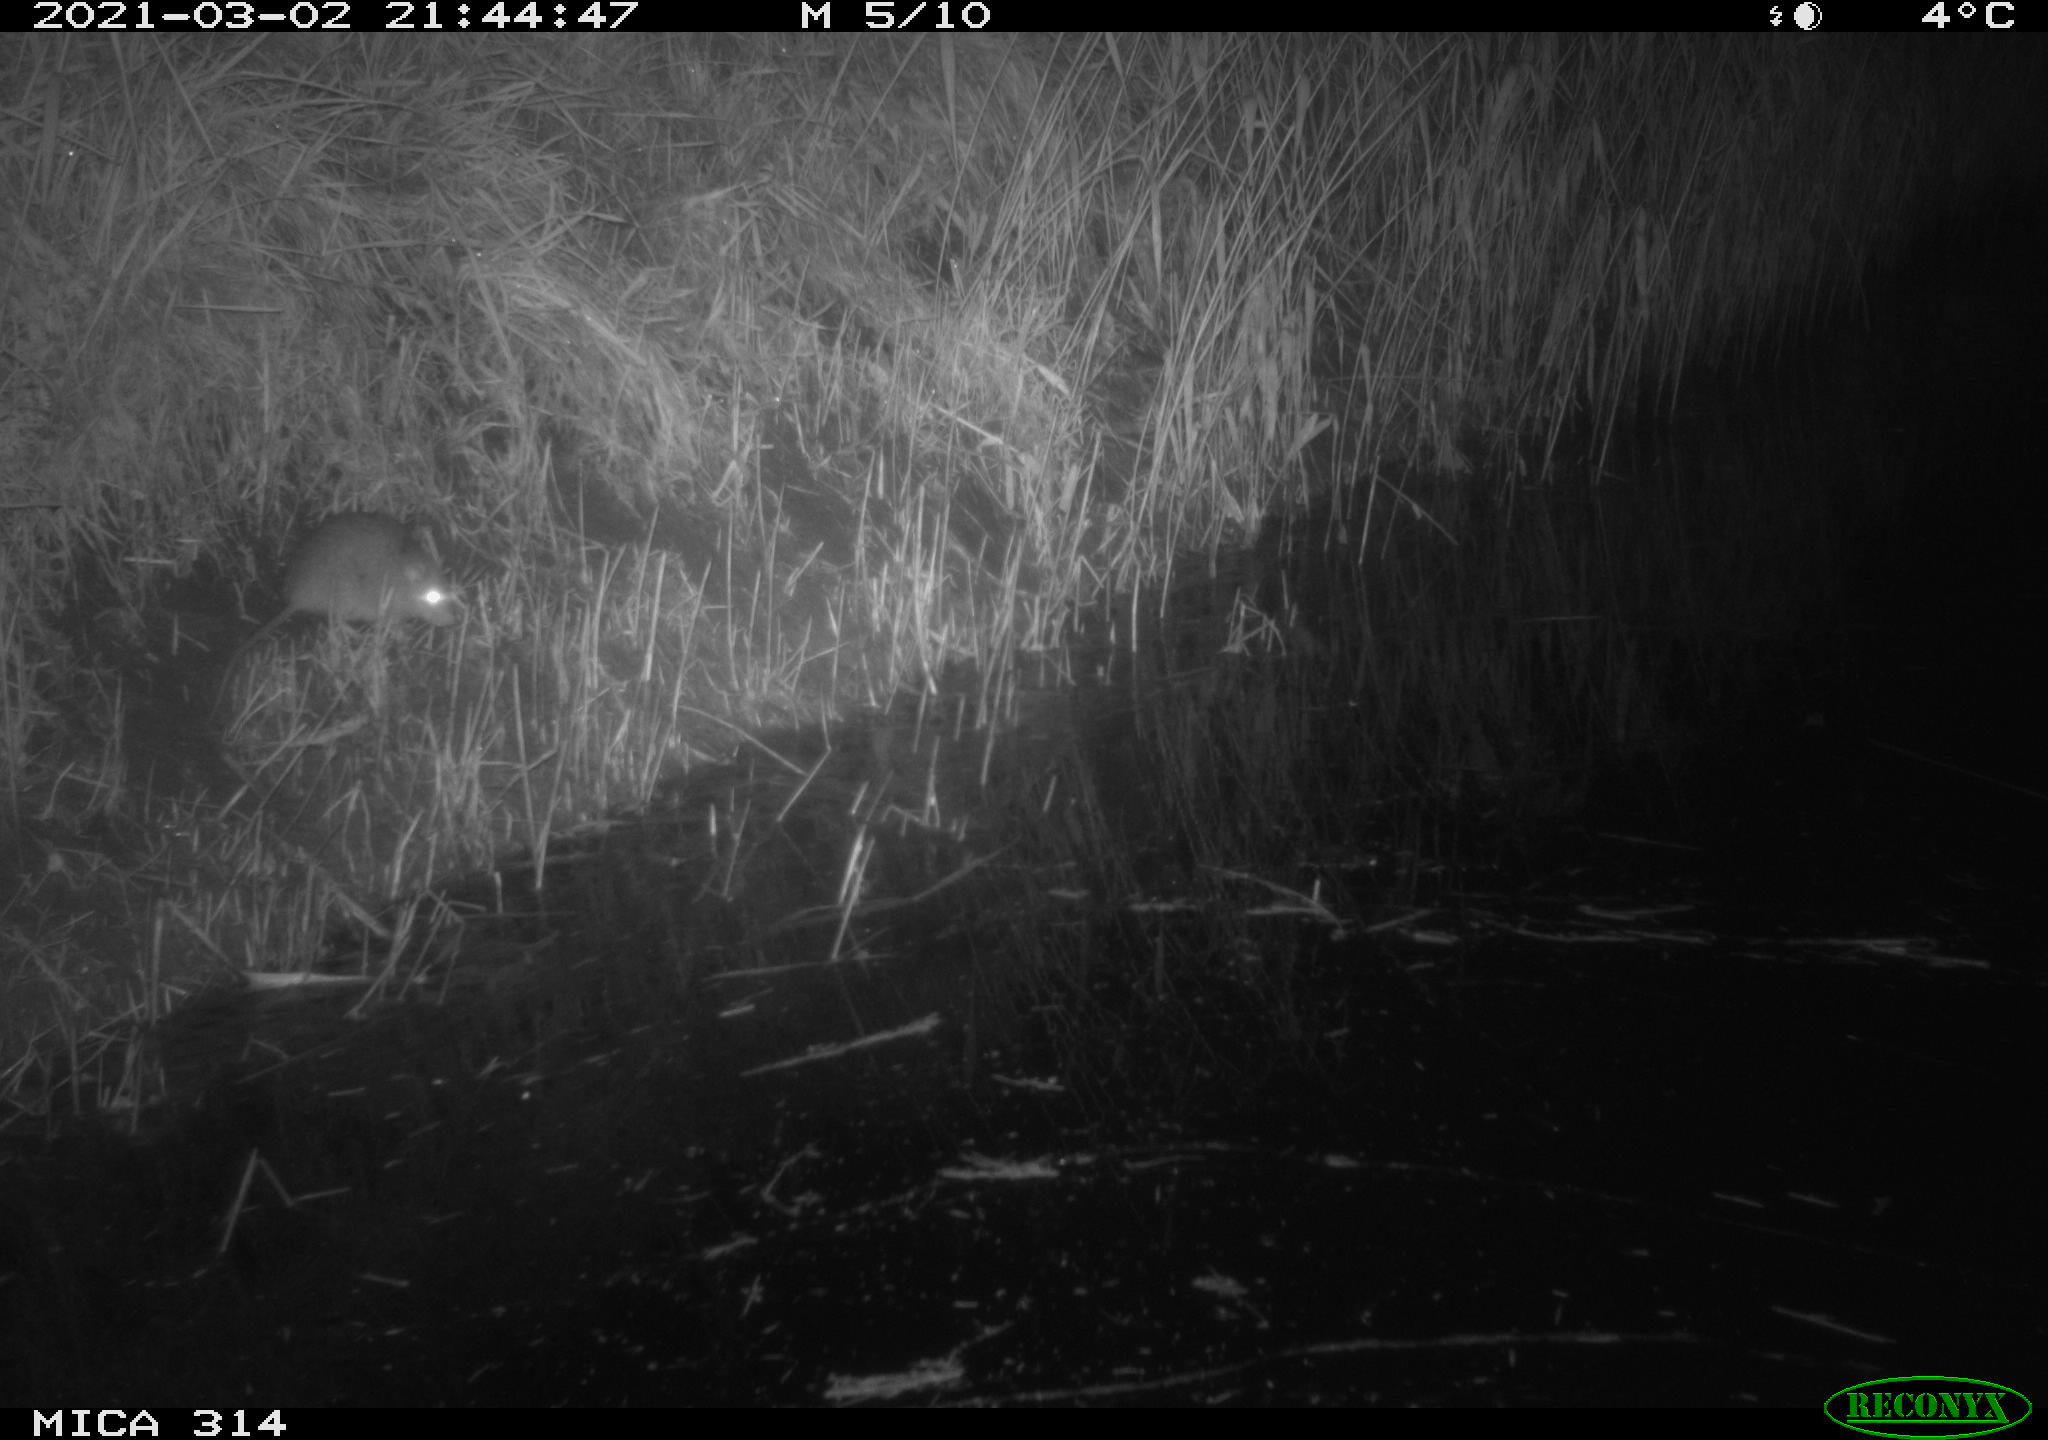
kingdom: Animalia
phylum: Chordata
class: Mammalia
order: Rodentia
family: Muridae
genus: Rattus
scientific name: Rattus norvegicus
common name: Brown rat
